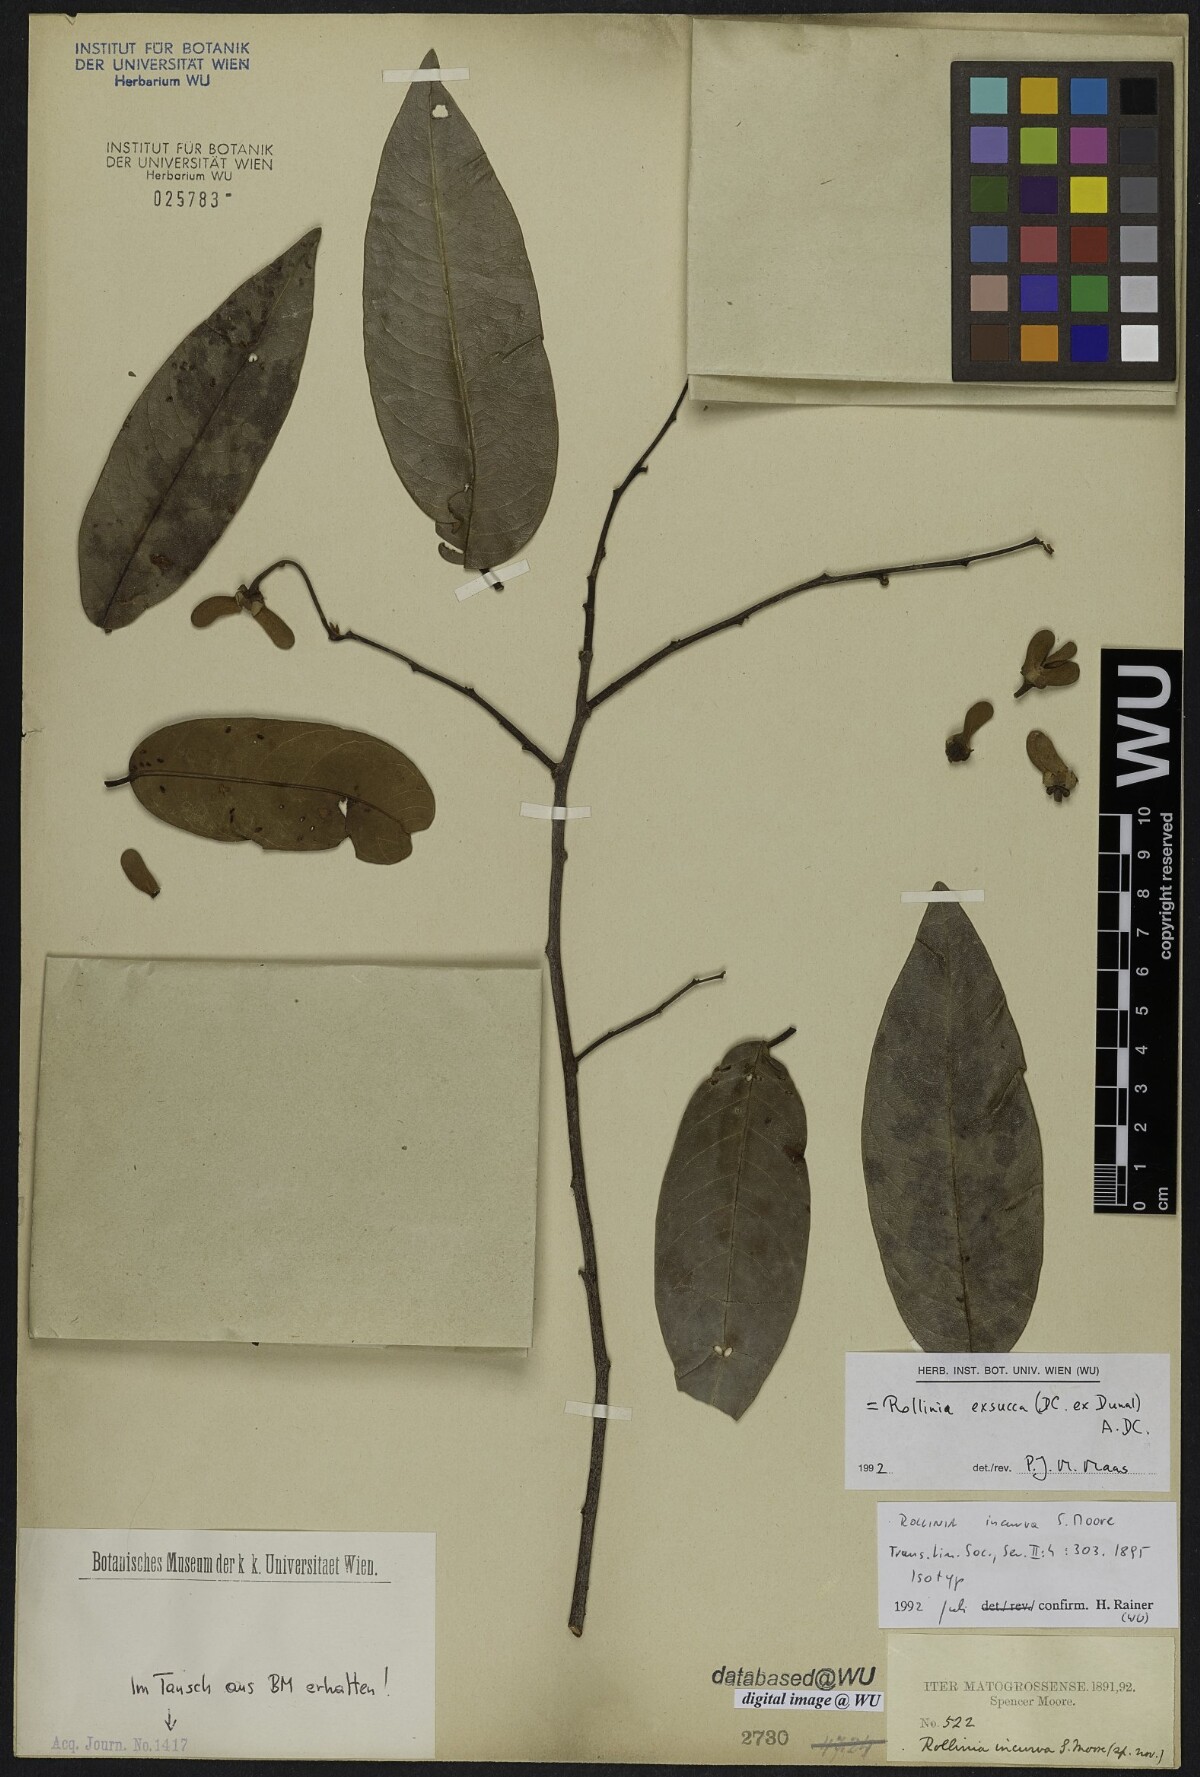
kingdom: Plantae
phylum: Tracheophyta
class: Magnoliopsida
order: Magnoliales
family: Annonaceae
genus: Annona
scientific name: Annona exsucca
